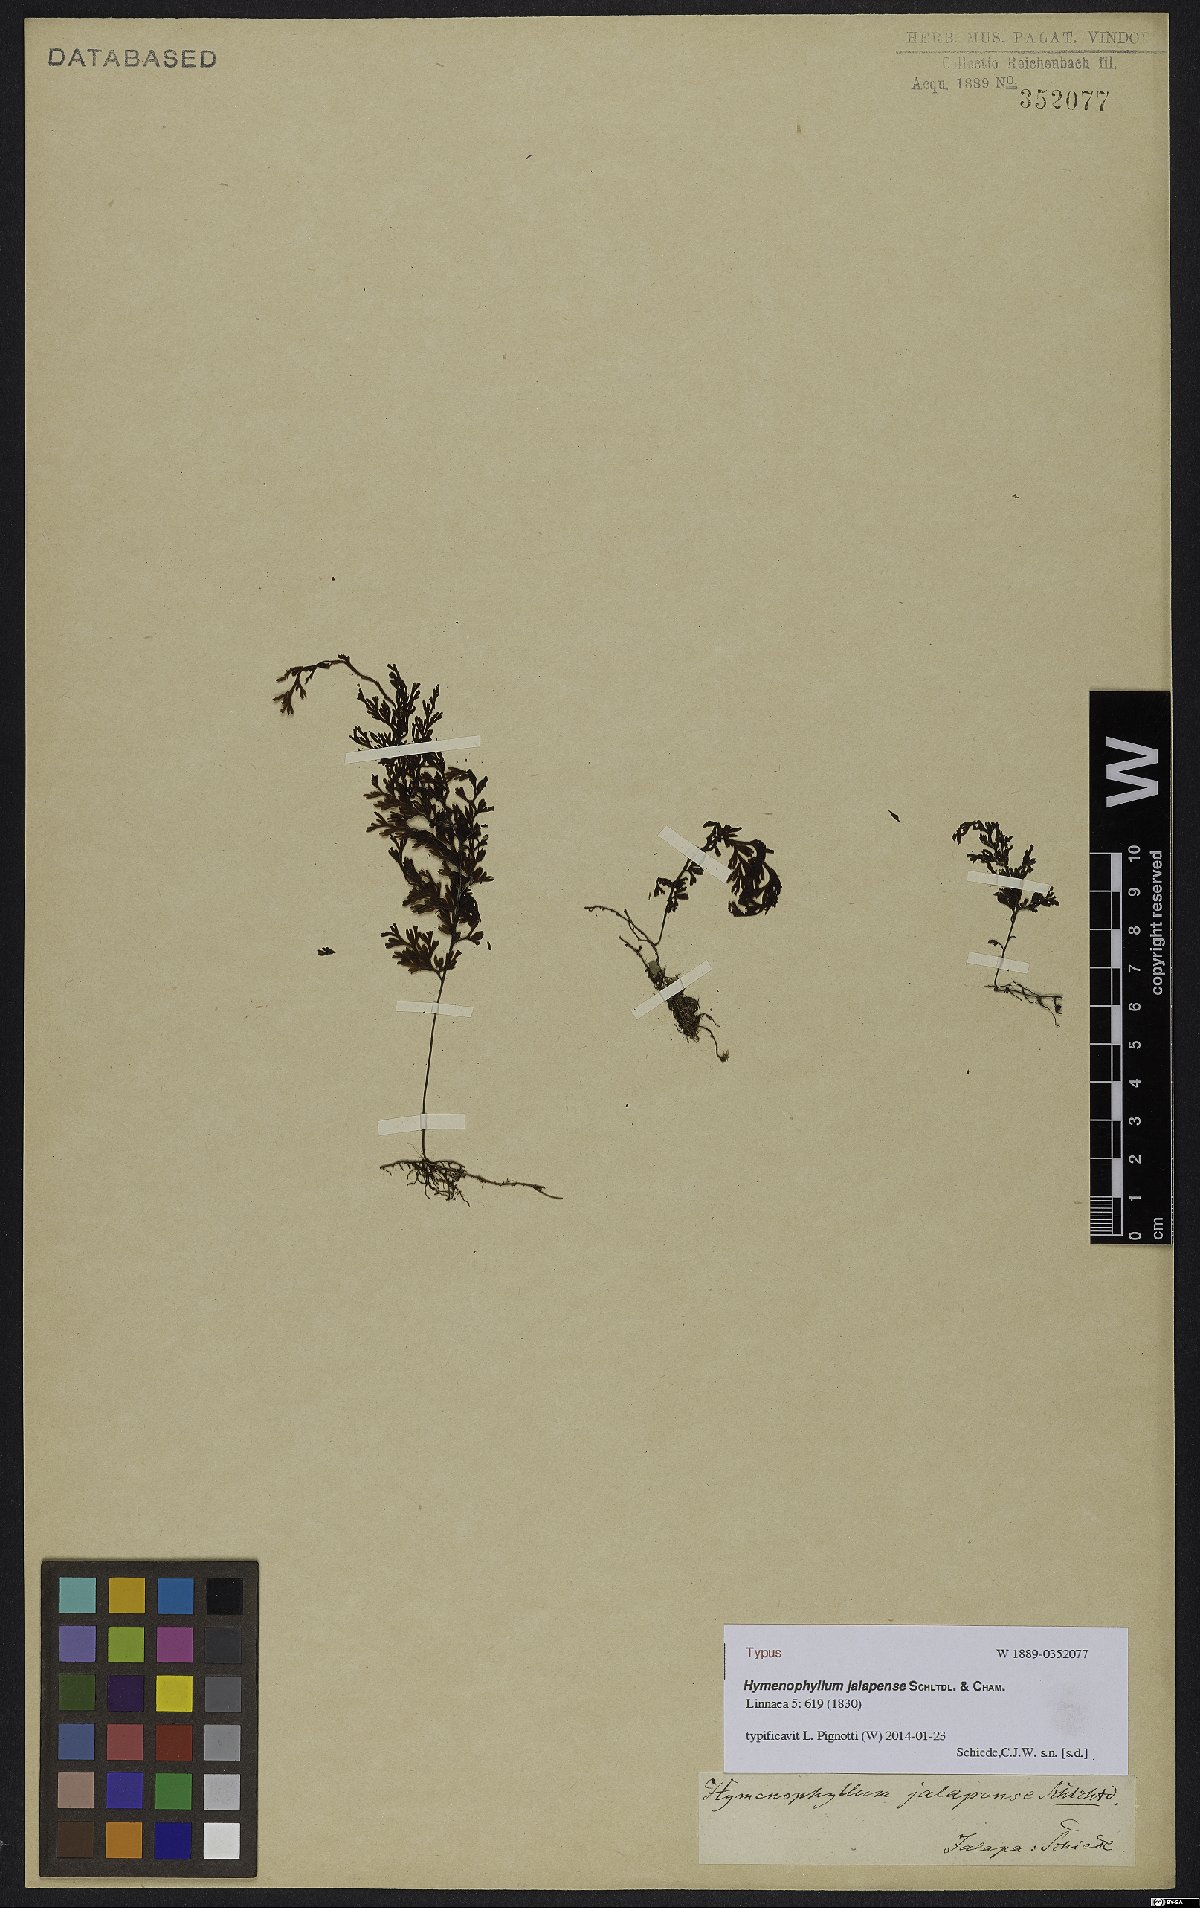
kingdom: Plantae
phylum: Tracheophyta
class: Polypodiopsida
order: Hymenophyllales
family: Hymenophyllaceae
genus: Hymenophyllum
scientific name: Hymenophyllum polyanthos
